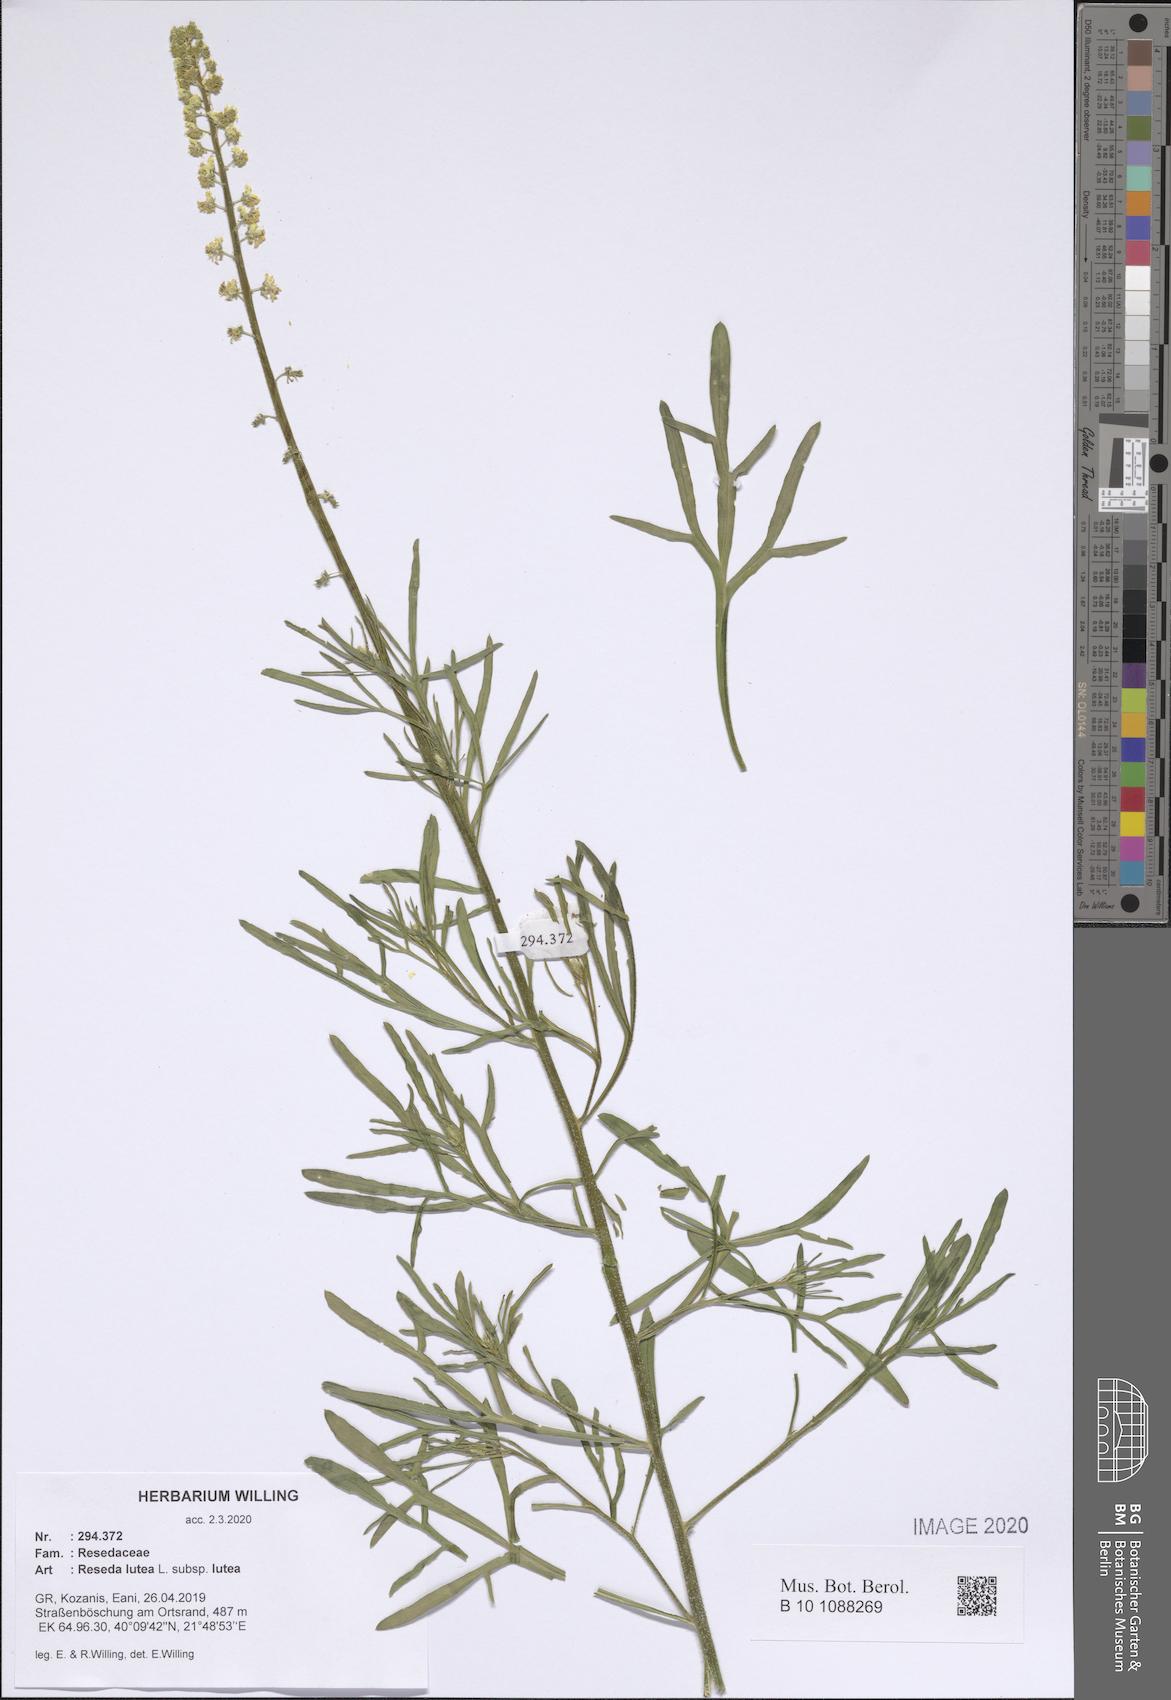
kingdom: Plantae
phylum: Tracheophyta
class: Magnoliopsida
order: Brassicales
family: Resedaceae
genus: Reseda
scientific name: Reseda lutea
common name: Wild mignonette
